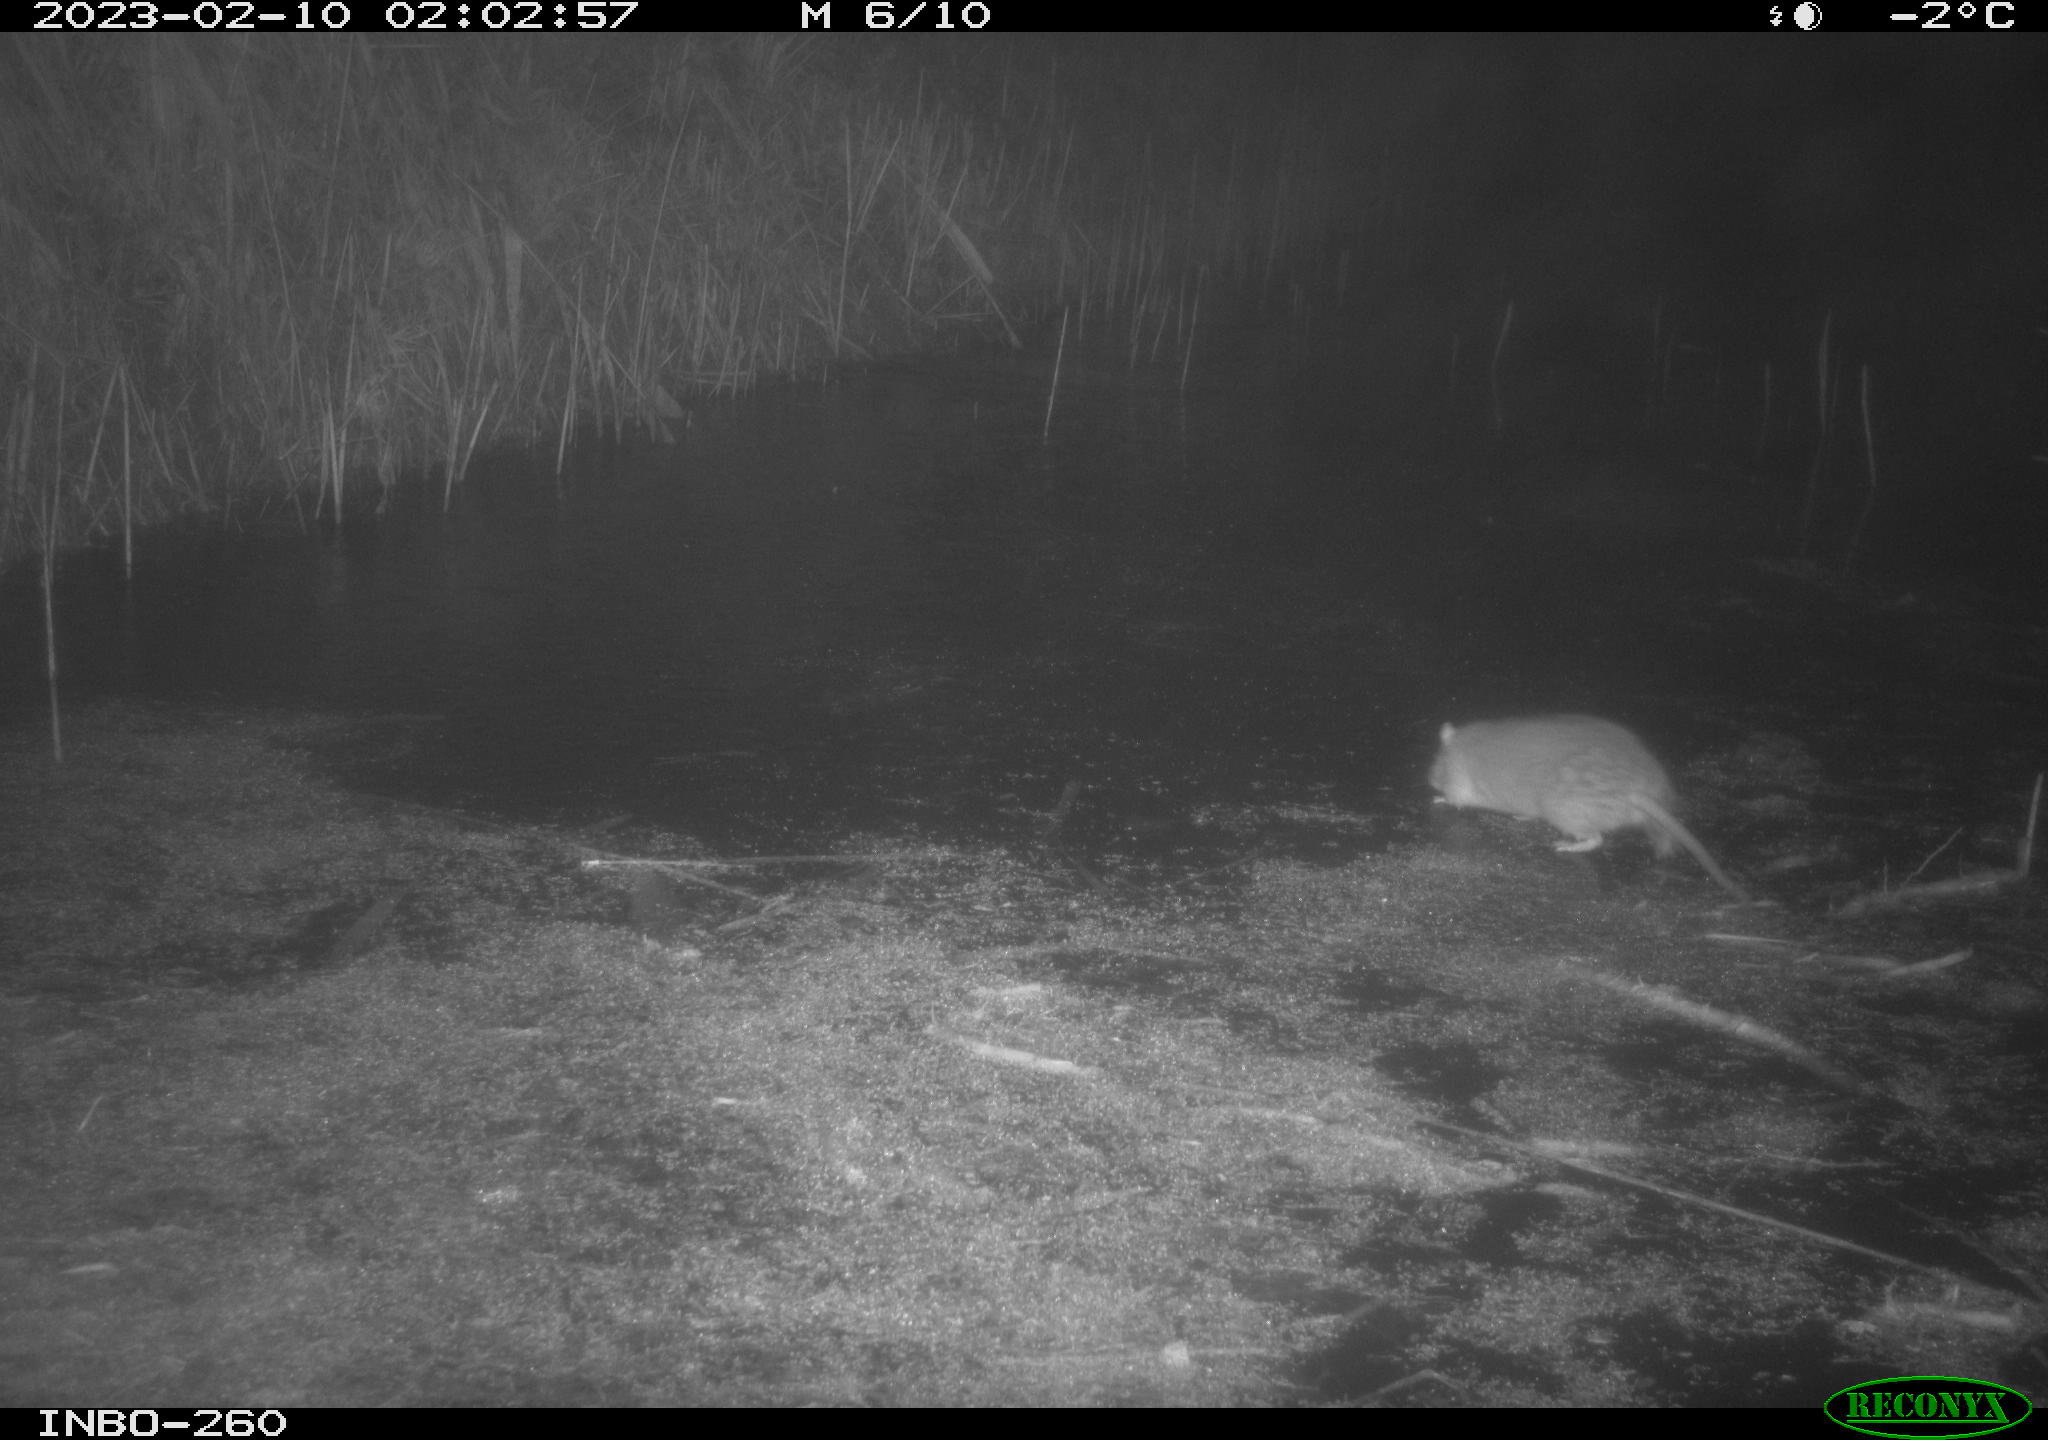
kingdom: Animalia
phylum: Chordata
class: Mammalia
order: Rodentia
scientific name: Rodentia
